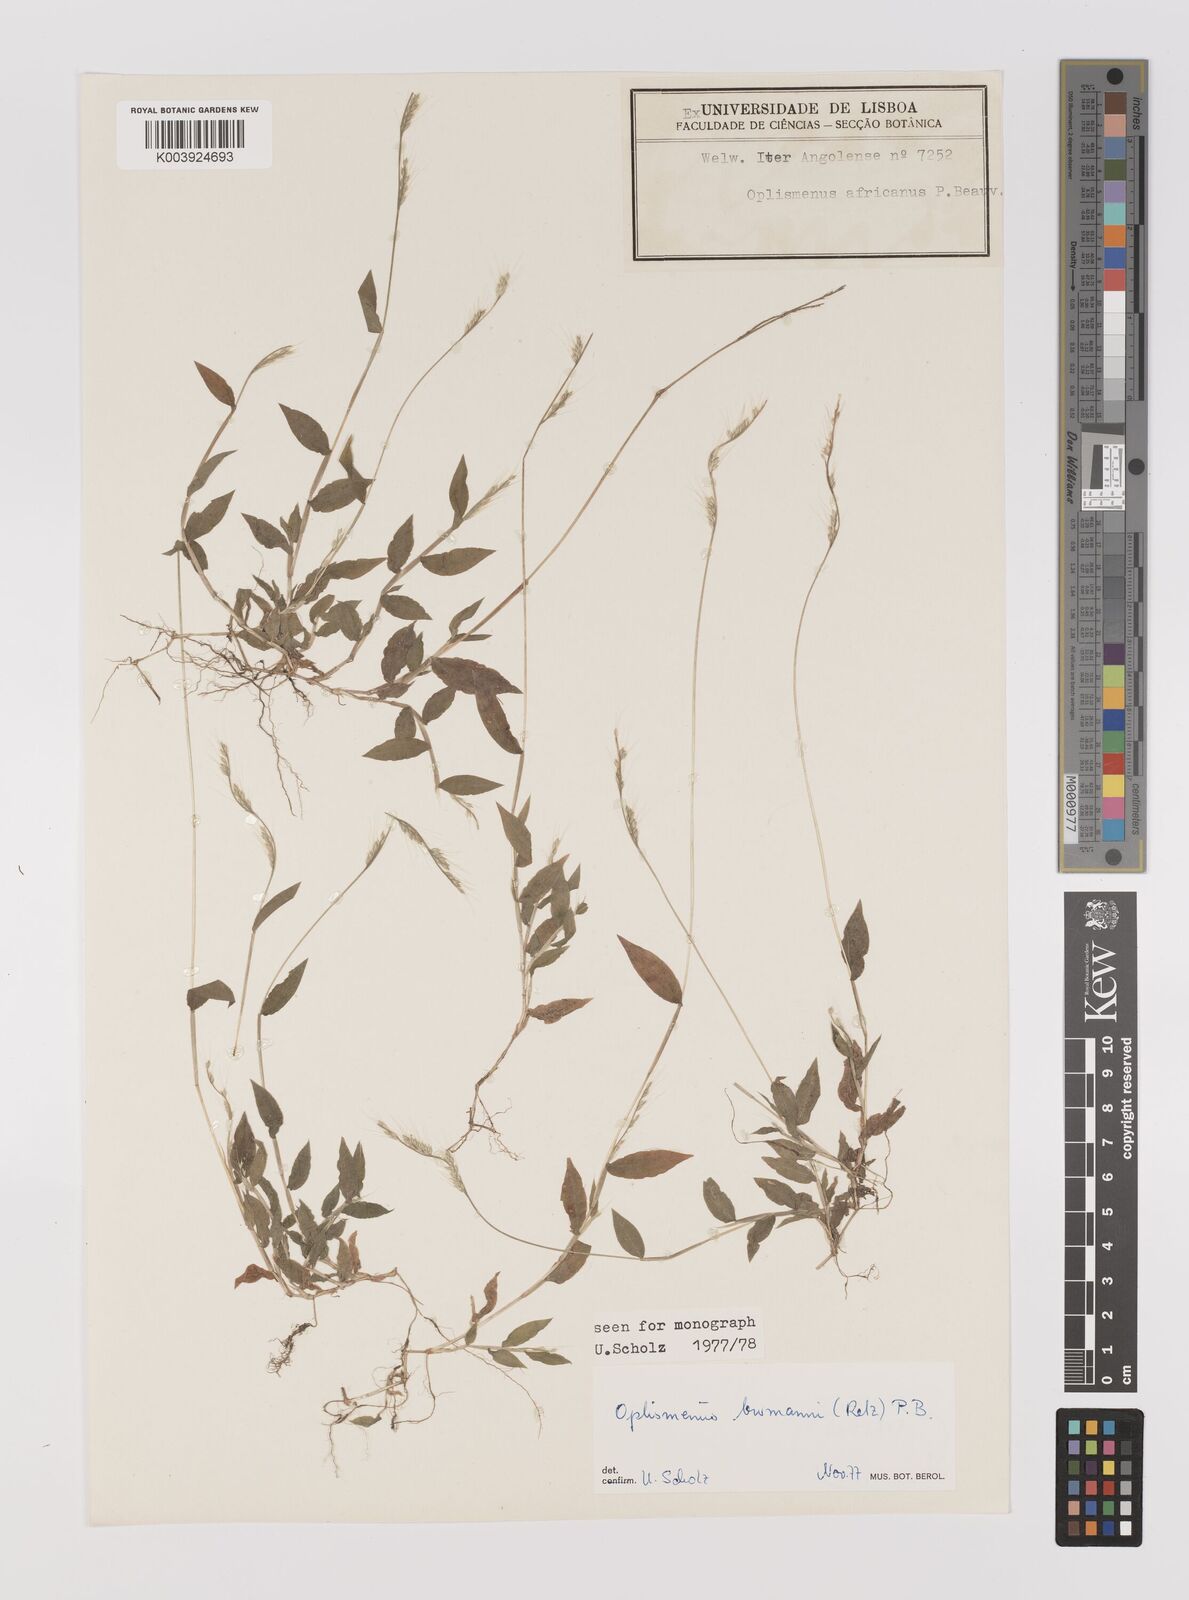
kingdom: Plantae
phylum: Tracheophyta
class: Liliopsida
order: Poales
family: Poaceae
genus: Oplismenus
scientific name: Oplismenus burmanni
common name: Burmann's basketgrass
